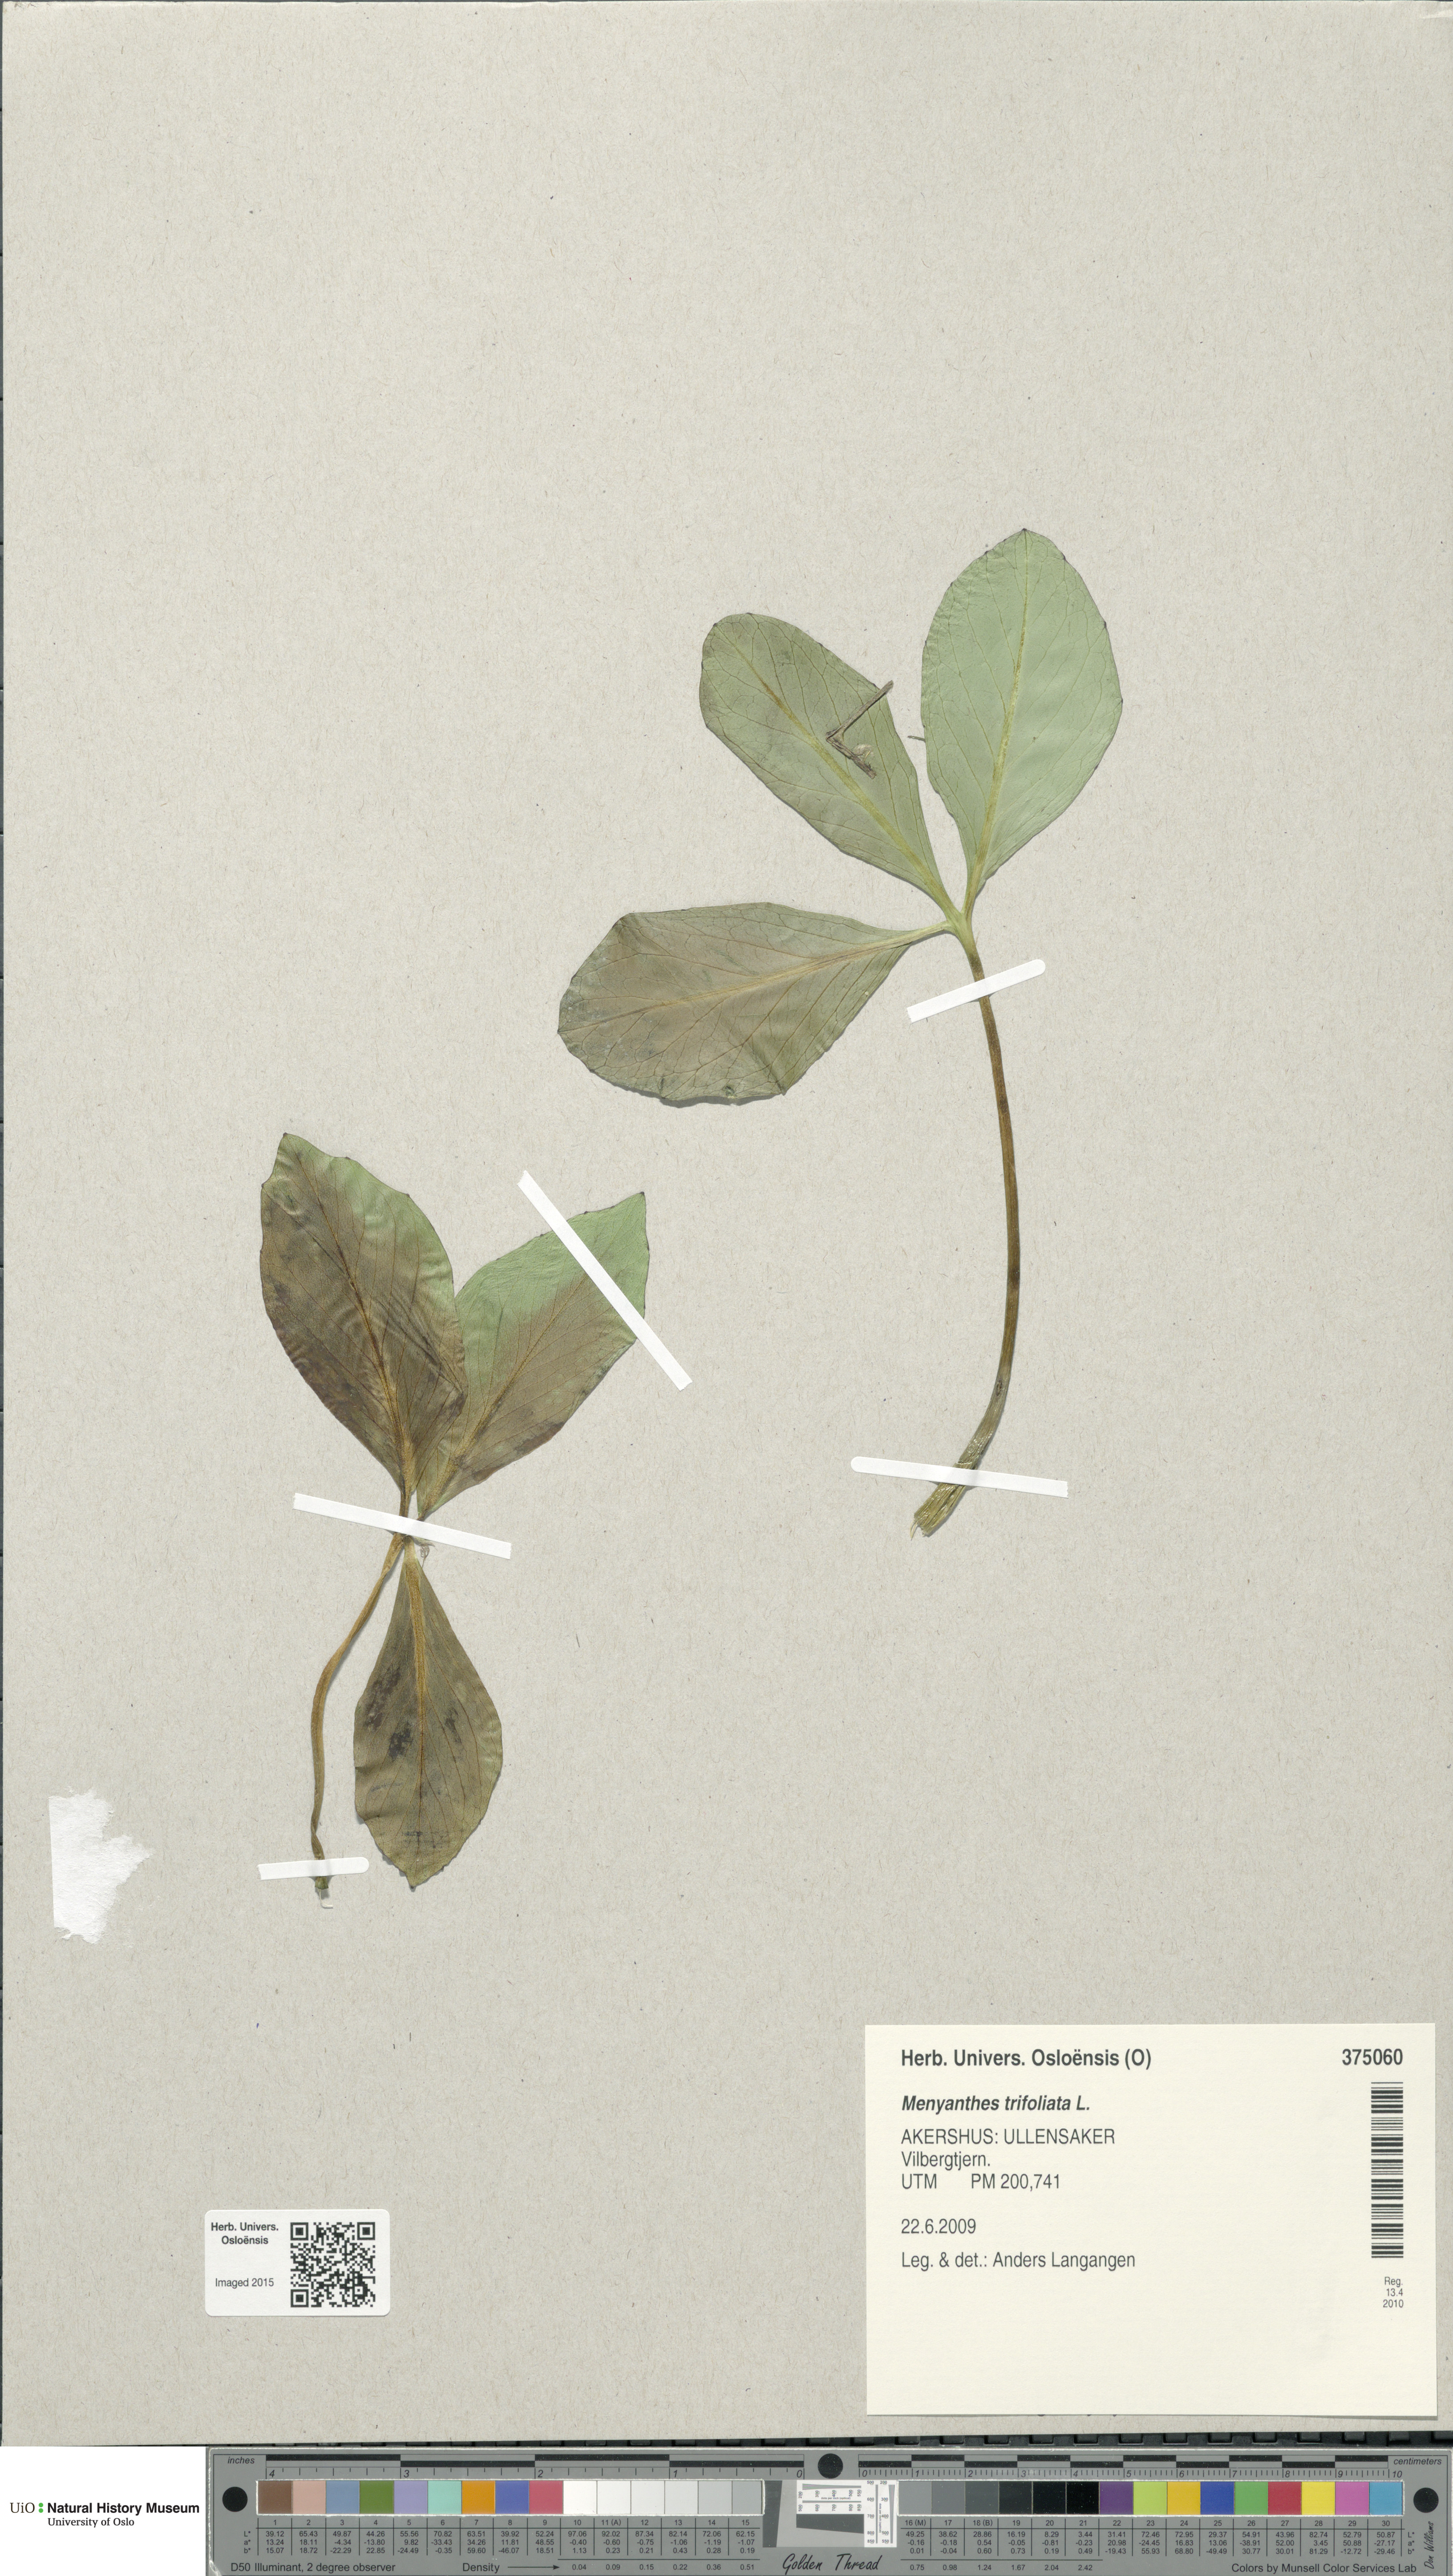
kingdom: Plantae
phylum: Tracheophyta
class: Magnoliopsida
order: Asterales
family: Menyanthaceae
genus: Menyanthes
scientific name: Menyanthes trifoliata
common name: Bogbean
